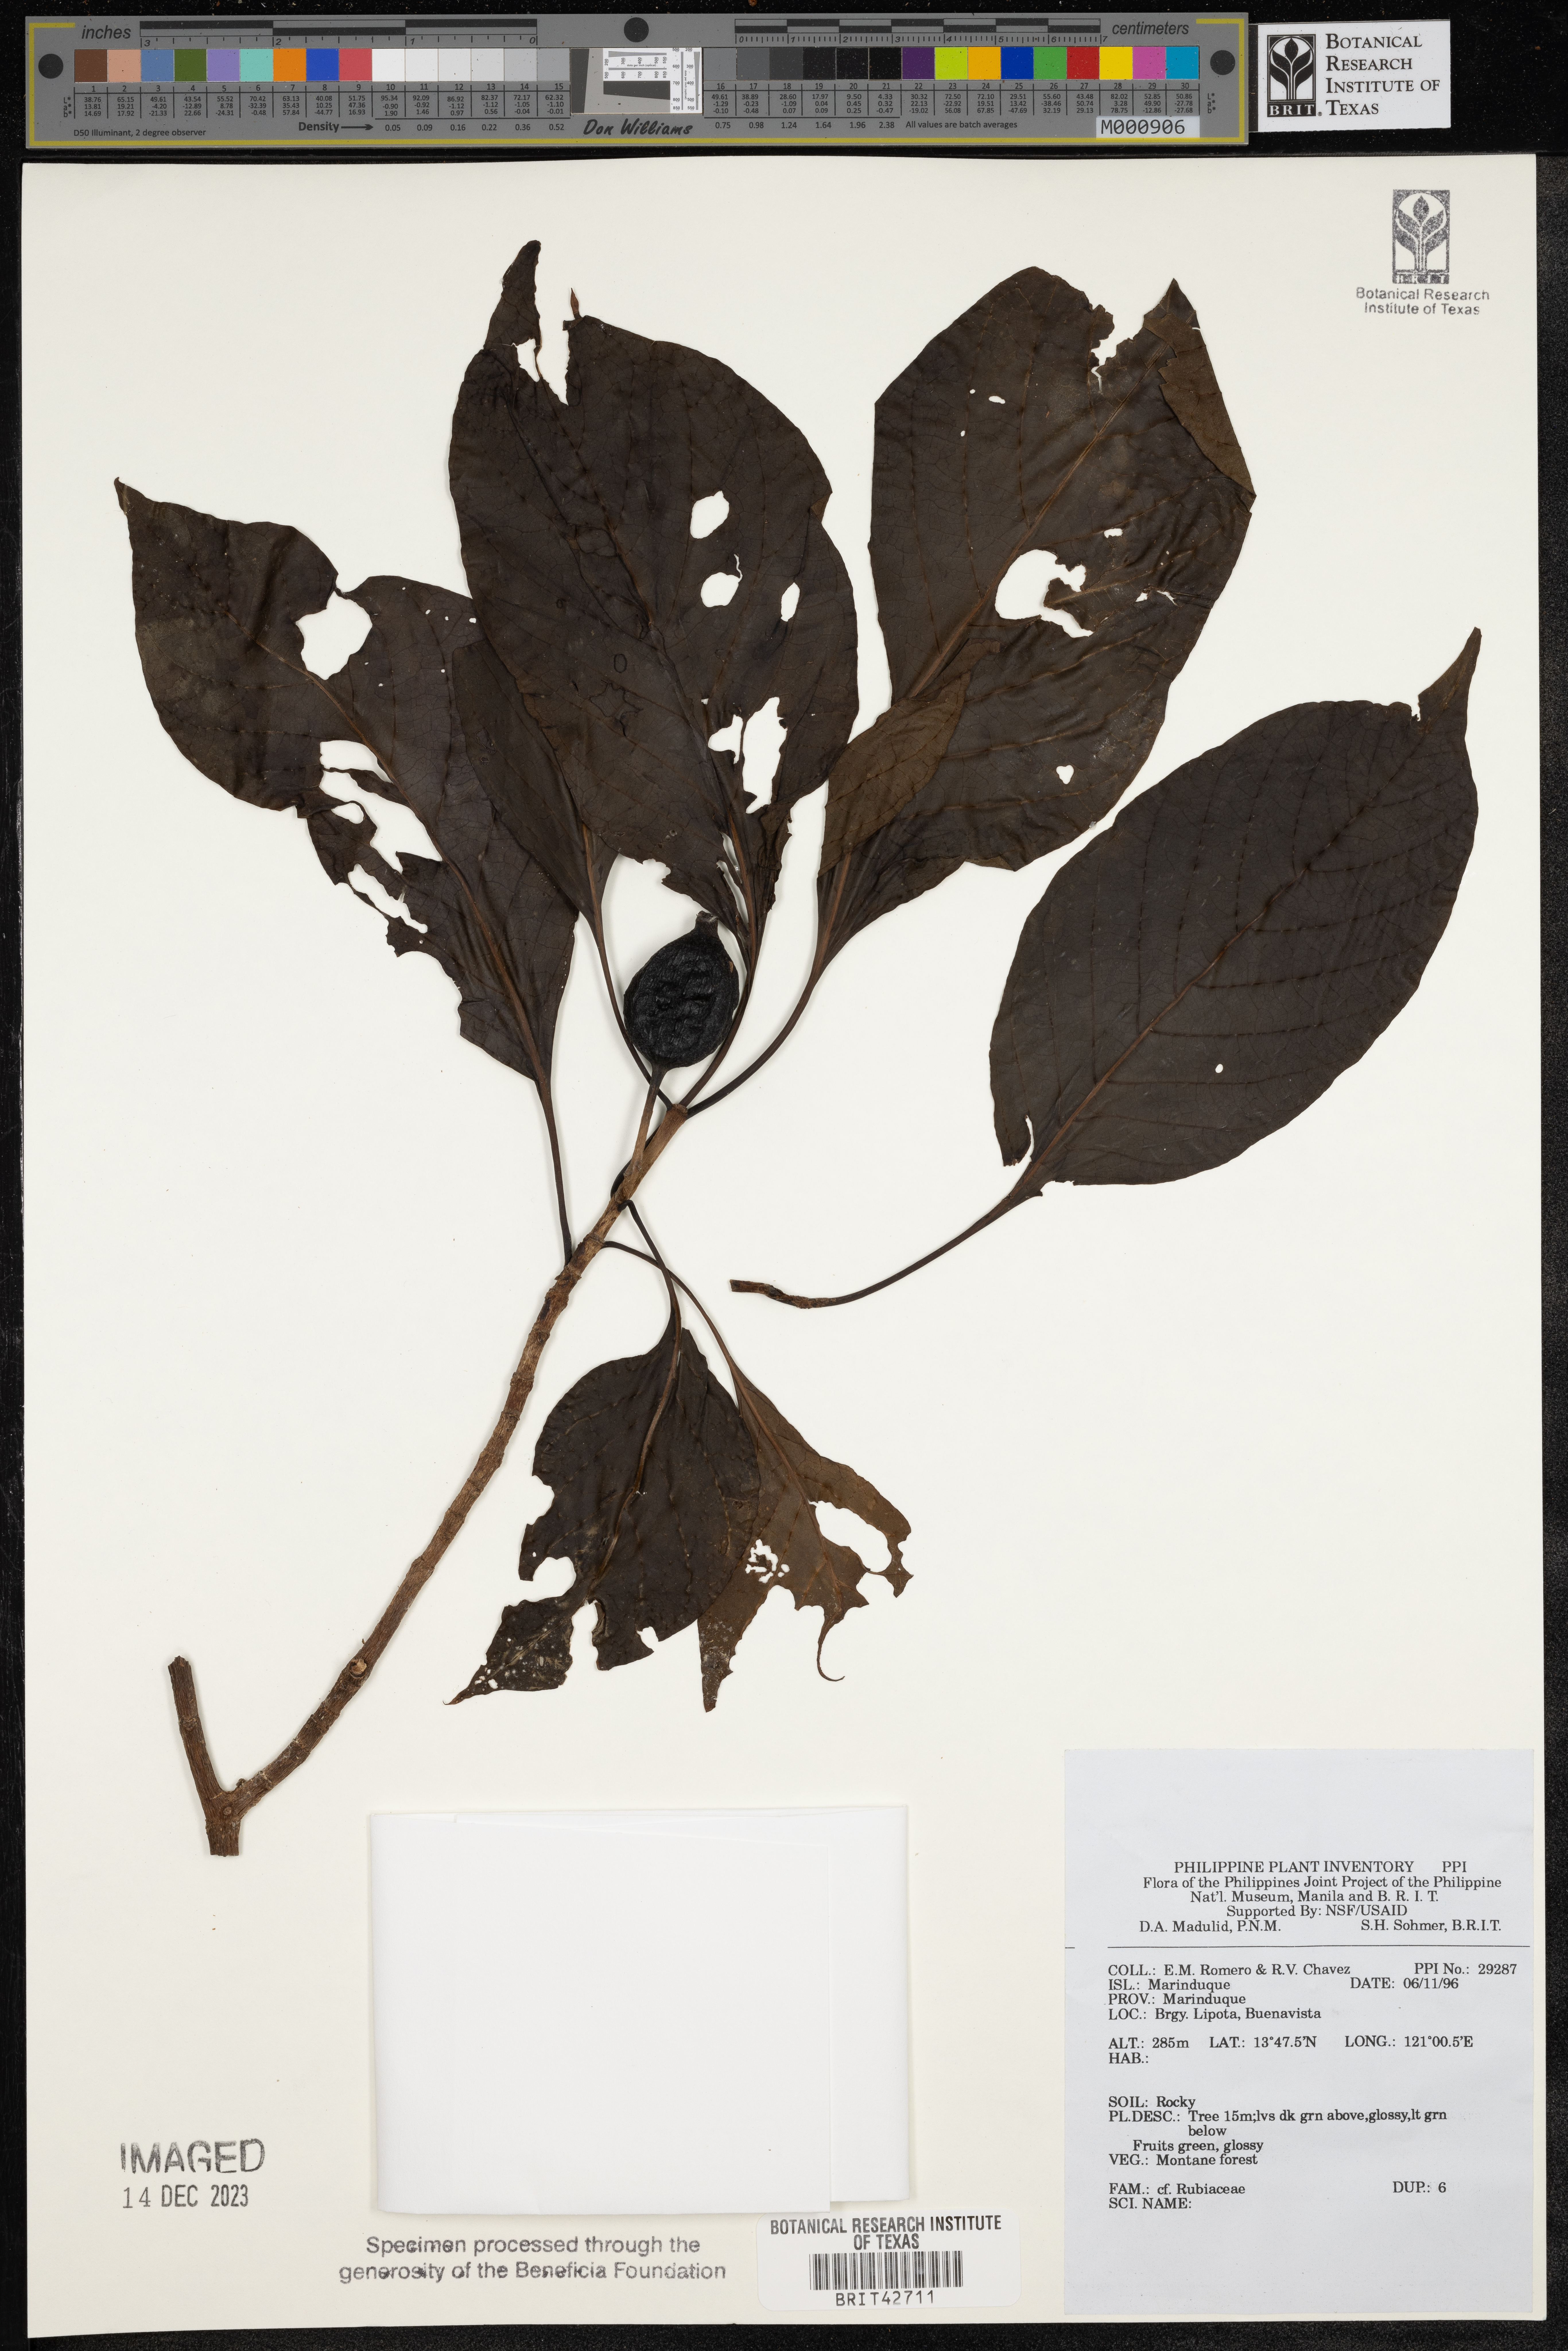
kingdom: Plantae
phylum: Tracheophyta
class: Magnoliopsida
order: Gentianales
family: Rubiaceae
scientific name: Rubiaceae
